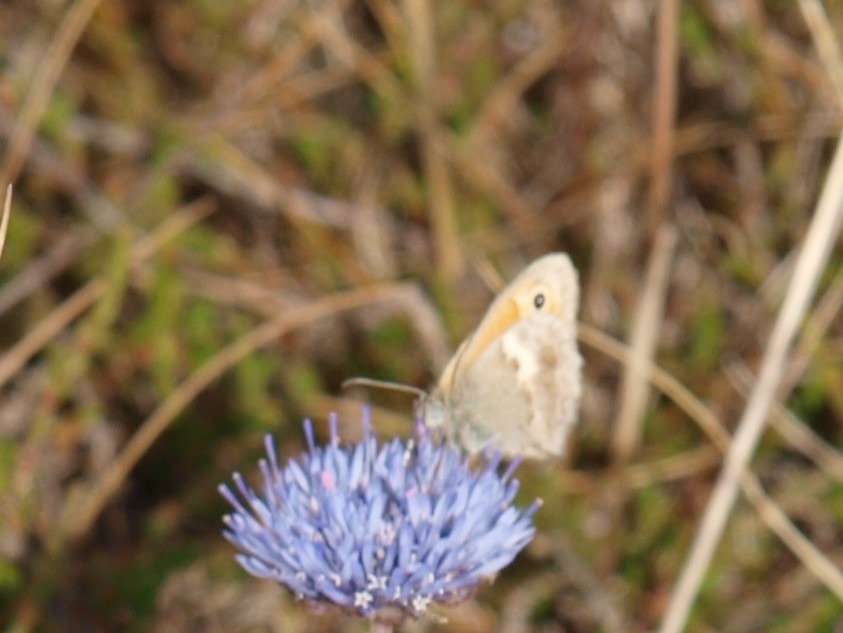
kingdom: Animalia
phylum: Arthropoda
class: Insecta
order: Lepidoptera
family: Nymphalidae
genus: Coenonympha
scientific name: Coenonympha pamphilus
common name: Okkergul randøje
